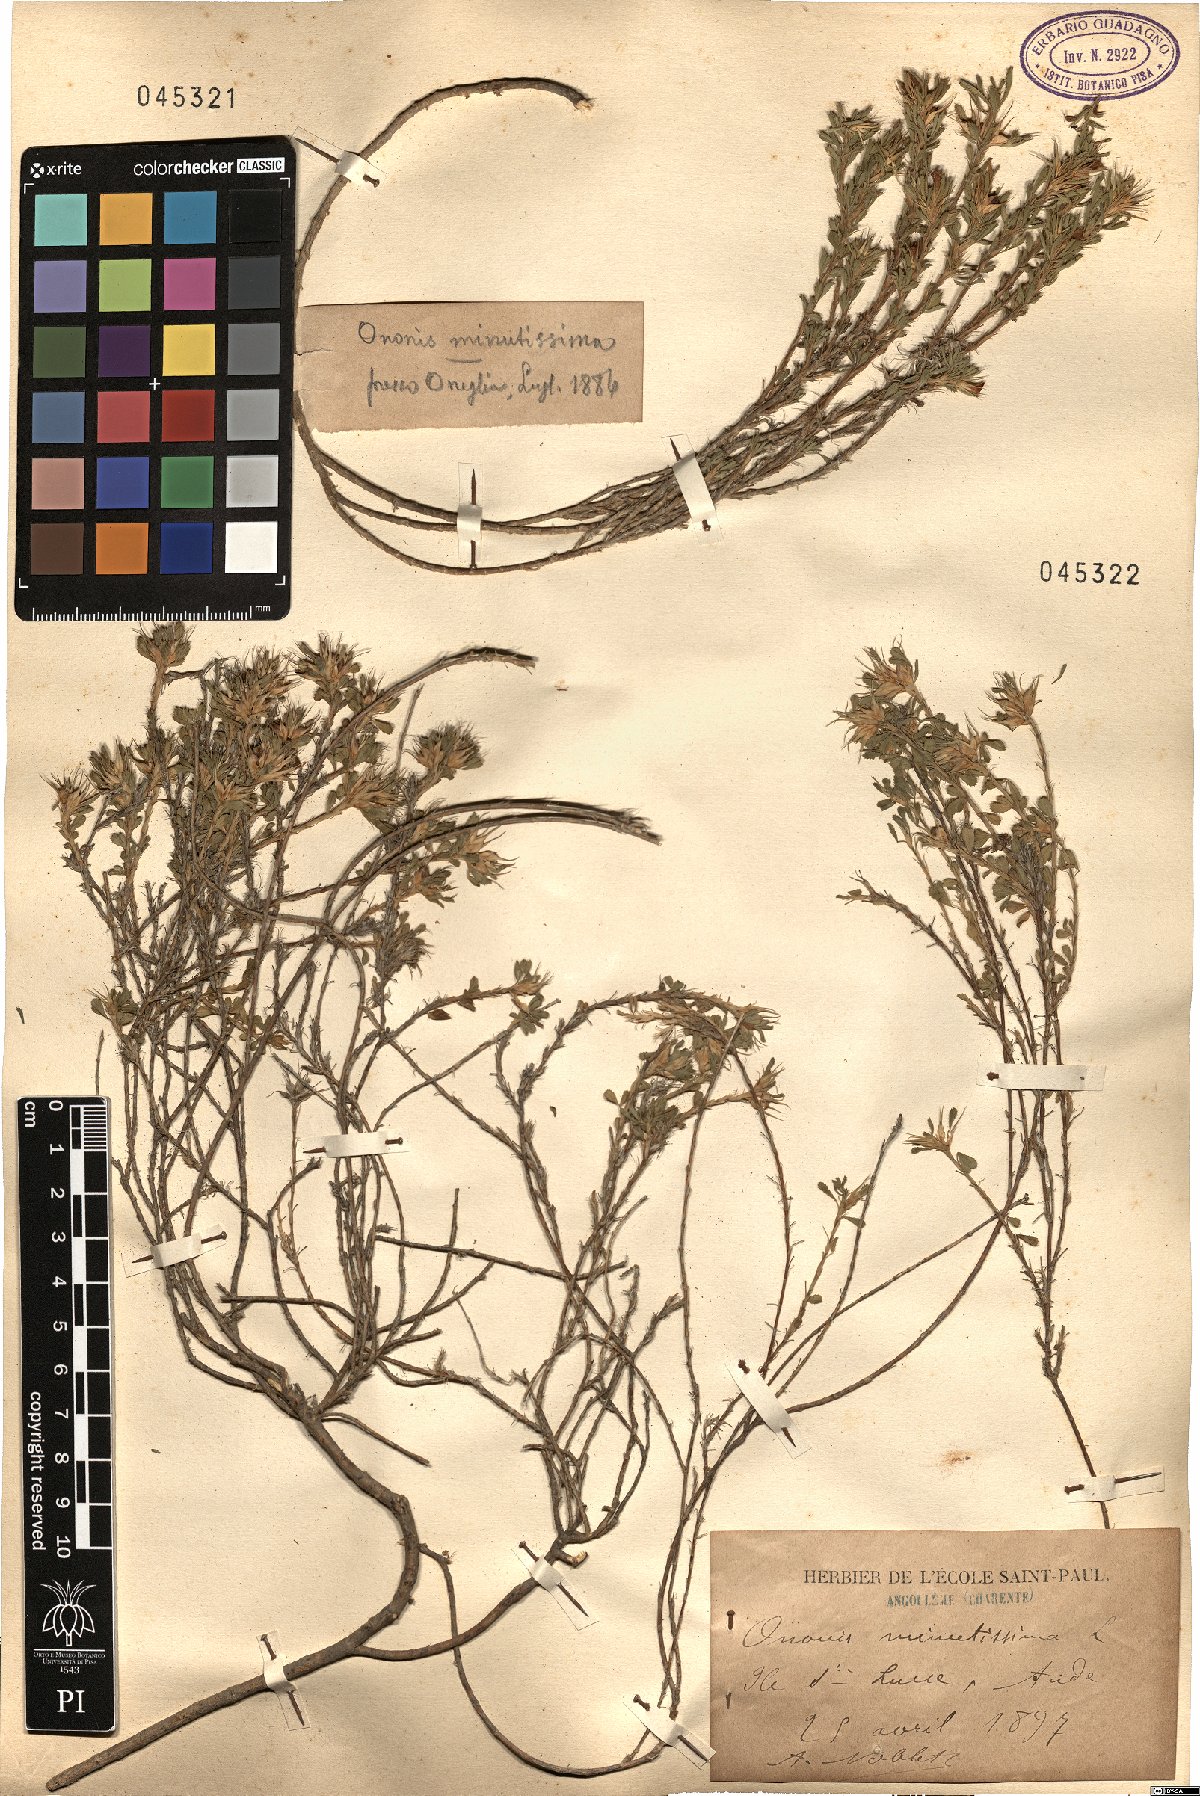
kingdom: Plantae
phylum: Tracheophyta
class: Magnoliopsida
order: Fabales
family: Fabaceae
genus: Ononis
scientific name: Ononis minutissima
